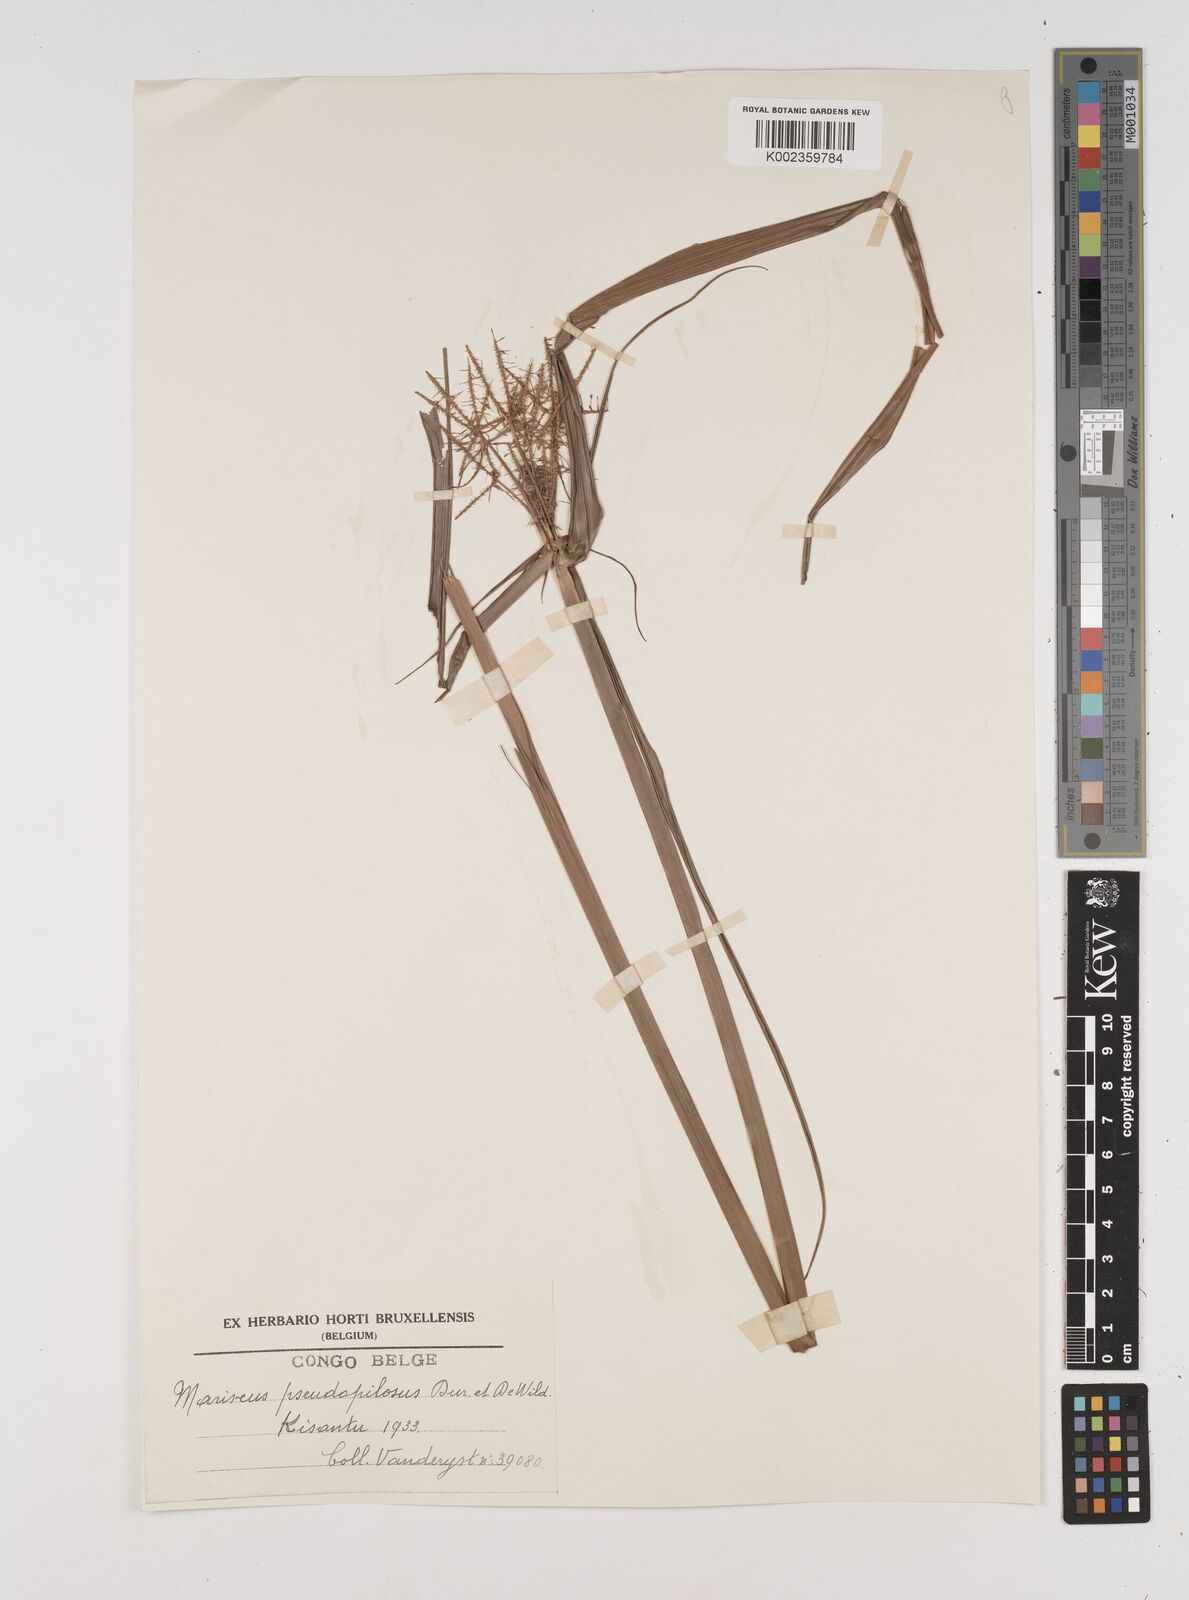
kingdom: Plantae
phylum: Tracheophyta
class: Liliopsida
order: Poales
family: Cyperaceae
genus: Cyperus
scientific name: Cyperus pseudopilosus
